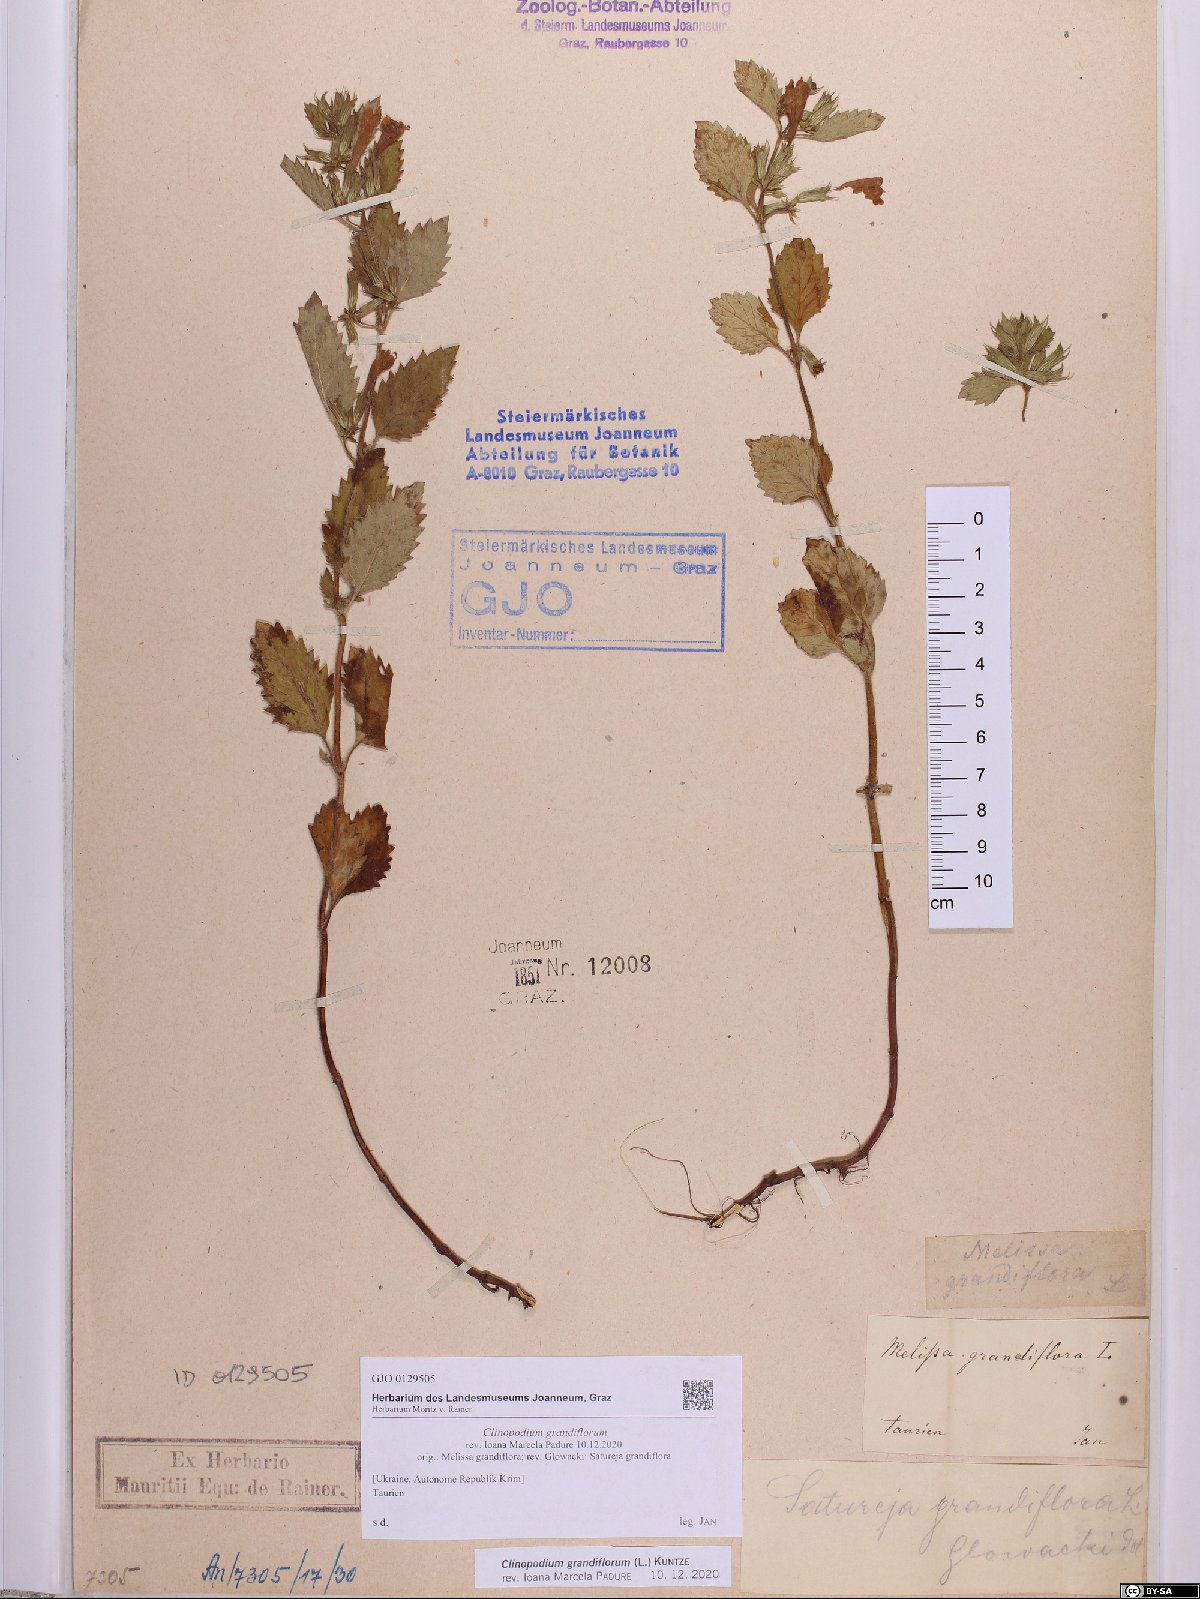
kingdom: Plantae
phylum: Tracheophyta
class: Magnoliopsida
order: Lamiales
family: Lamiaceae
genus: Clinopodium
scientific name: Clinopodium grandiflorum
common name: Greater calamint
